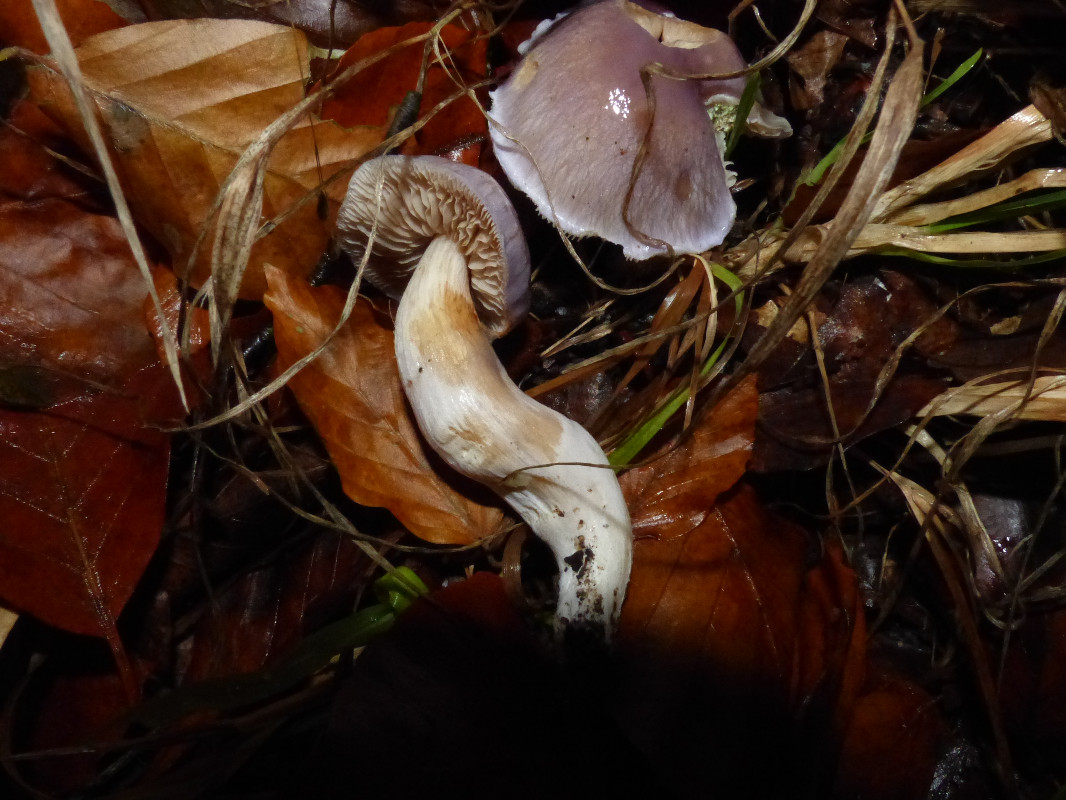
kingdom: Fungi
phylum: Basidiomycota
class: Agaricomycetes
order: Agaricales
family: Cortinariaceae
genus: Thaxterogaster
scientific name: Thaxterogaster croceocoeruleus
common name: blågullig slørhat
